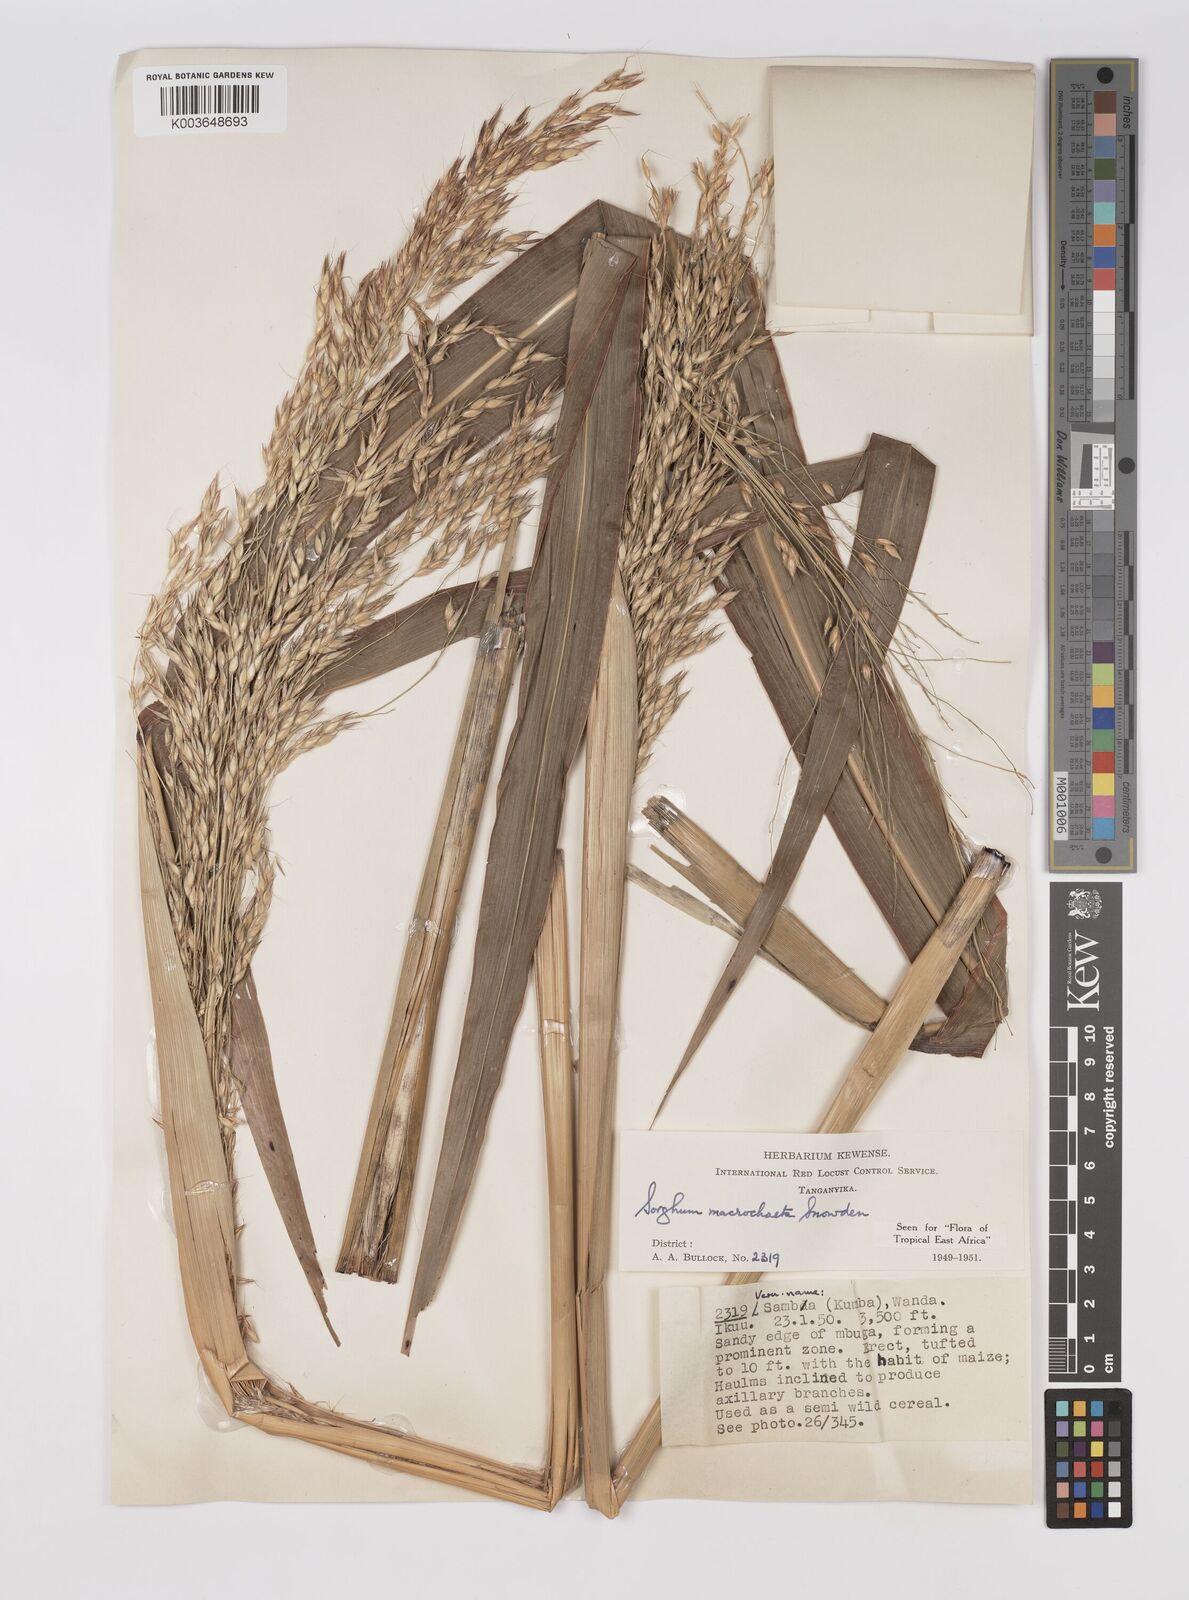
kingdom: Plantae
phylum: Tracheophyta
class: Liliopsida
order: Poales
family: Poaceae
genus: Sorghum
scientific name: Sorghum arundinaceum
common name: Sorghum
